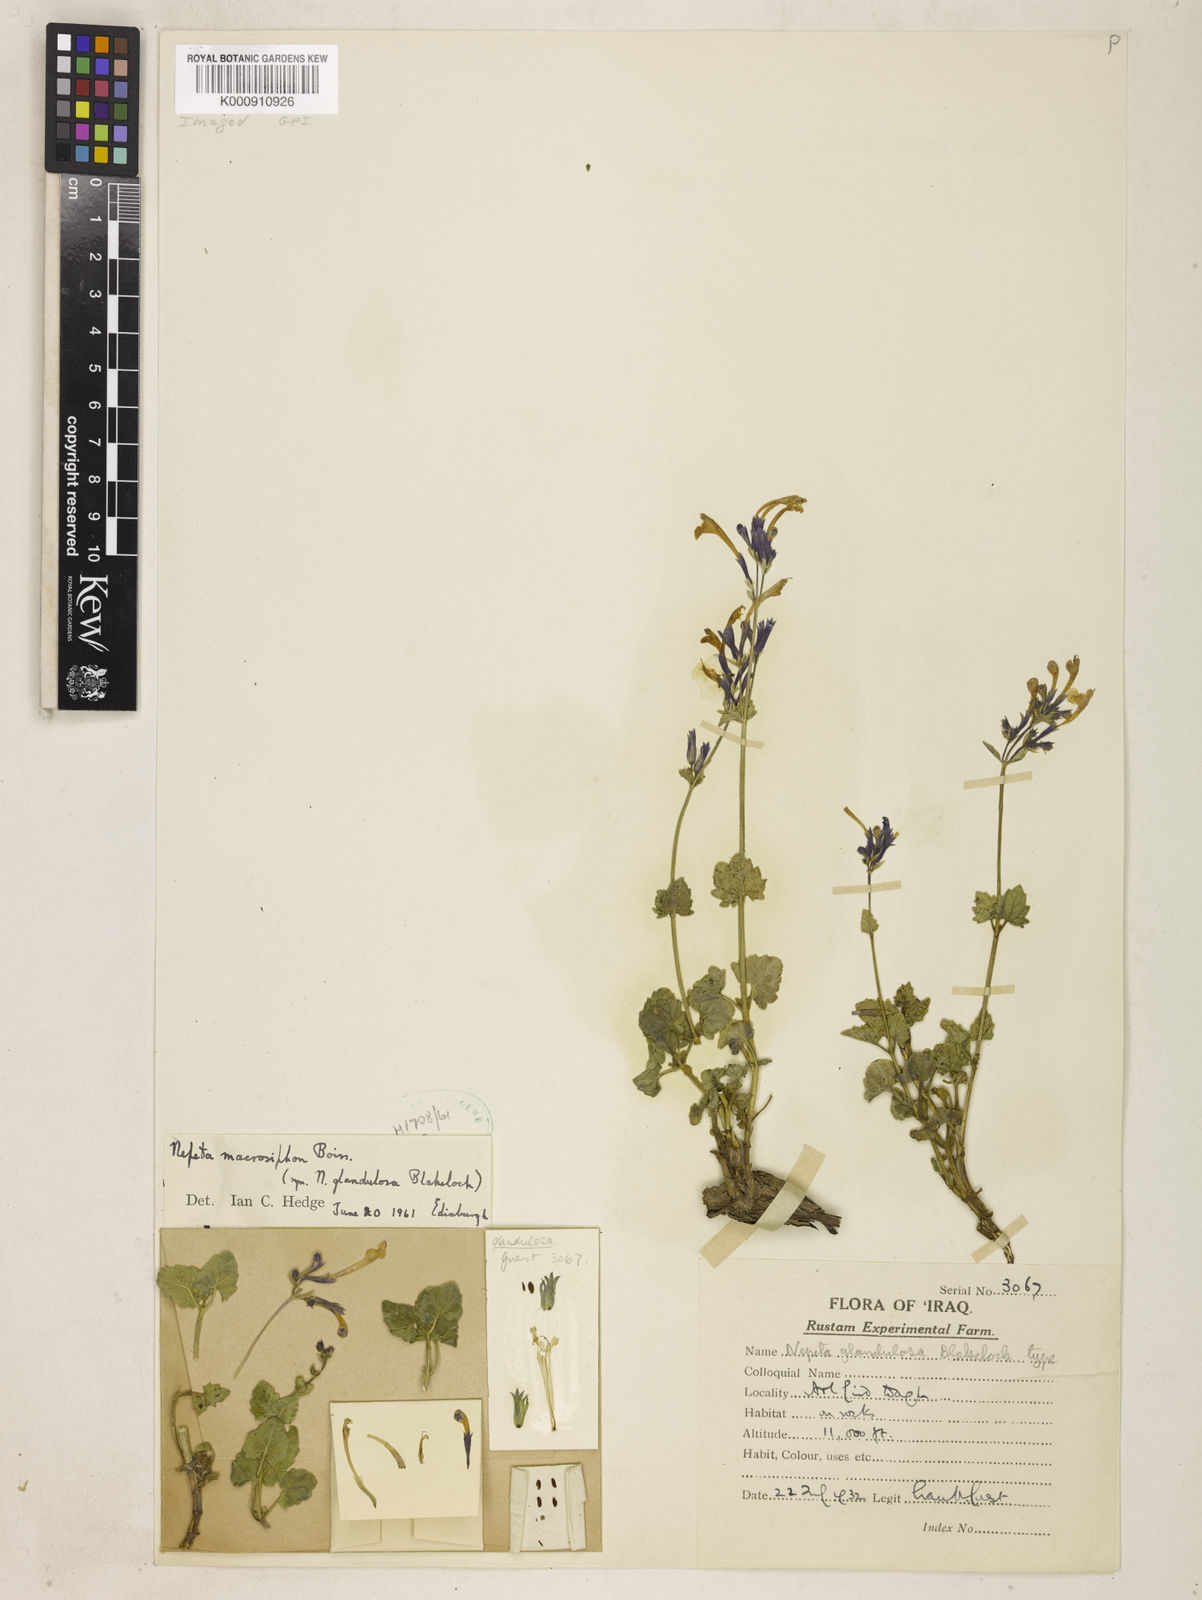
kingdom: Plantae
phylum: Tracheophyta
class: Magnoliopsida
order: Lamiales
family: Lamiaceae
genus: Nepeta
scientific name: Nepeta macrosiphon
